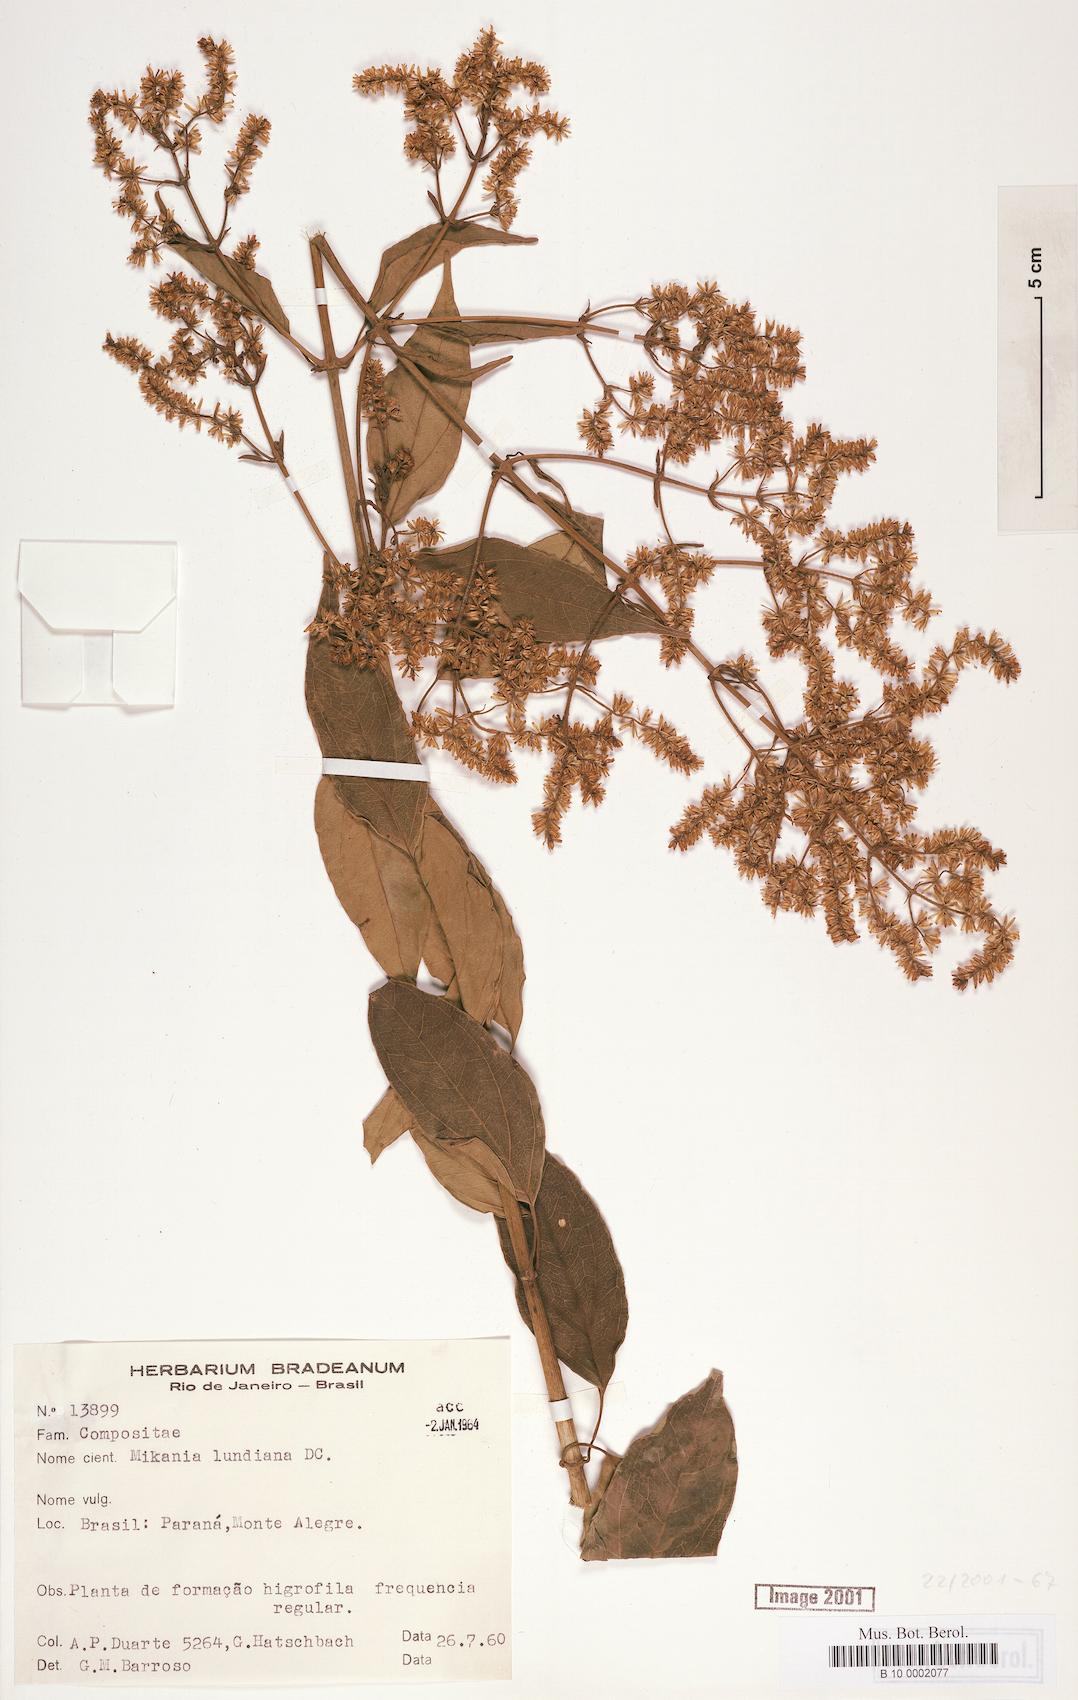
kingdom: Plantae
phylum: Tracheophyta
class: Magnoliopsida
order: Asterales
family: Asteraceae
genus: Mikania
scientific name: Mikania lundiana
